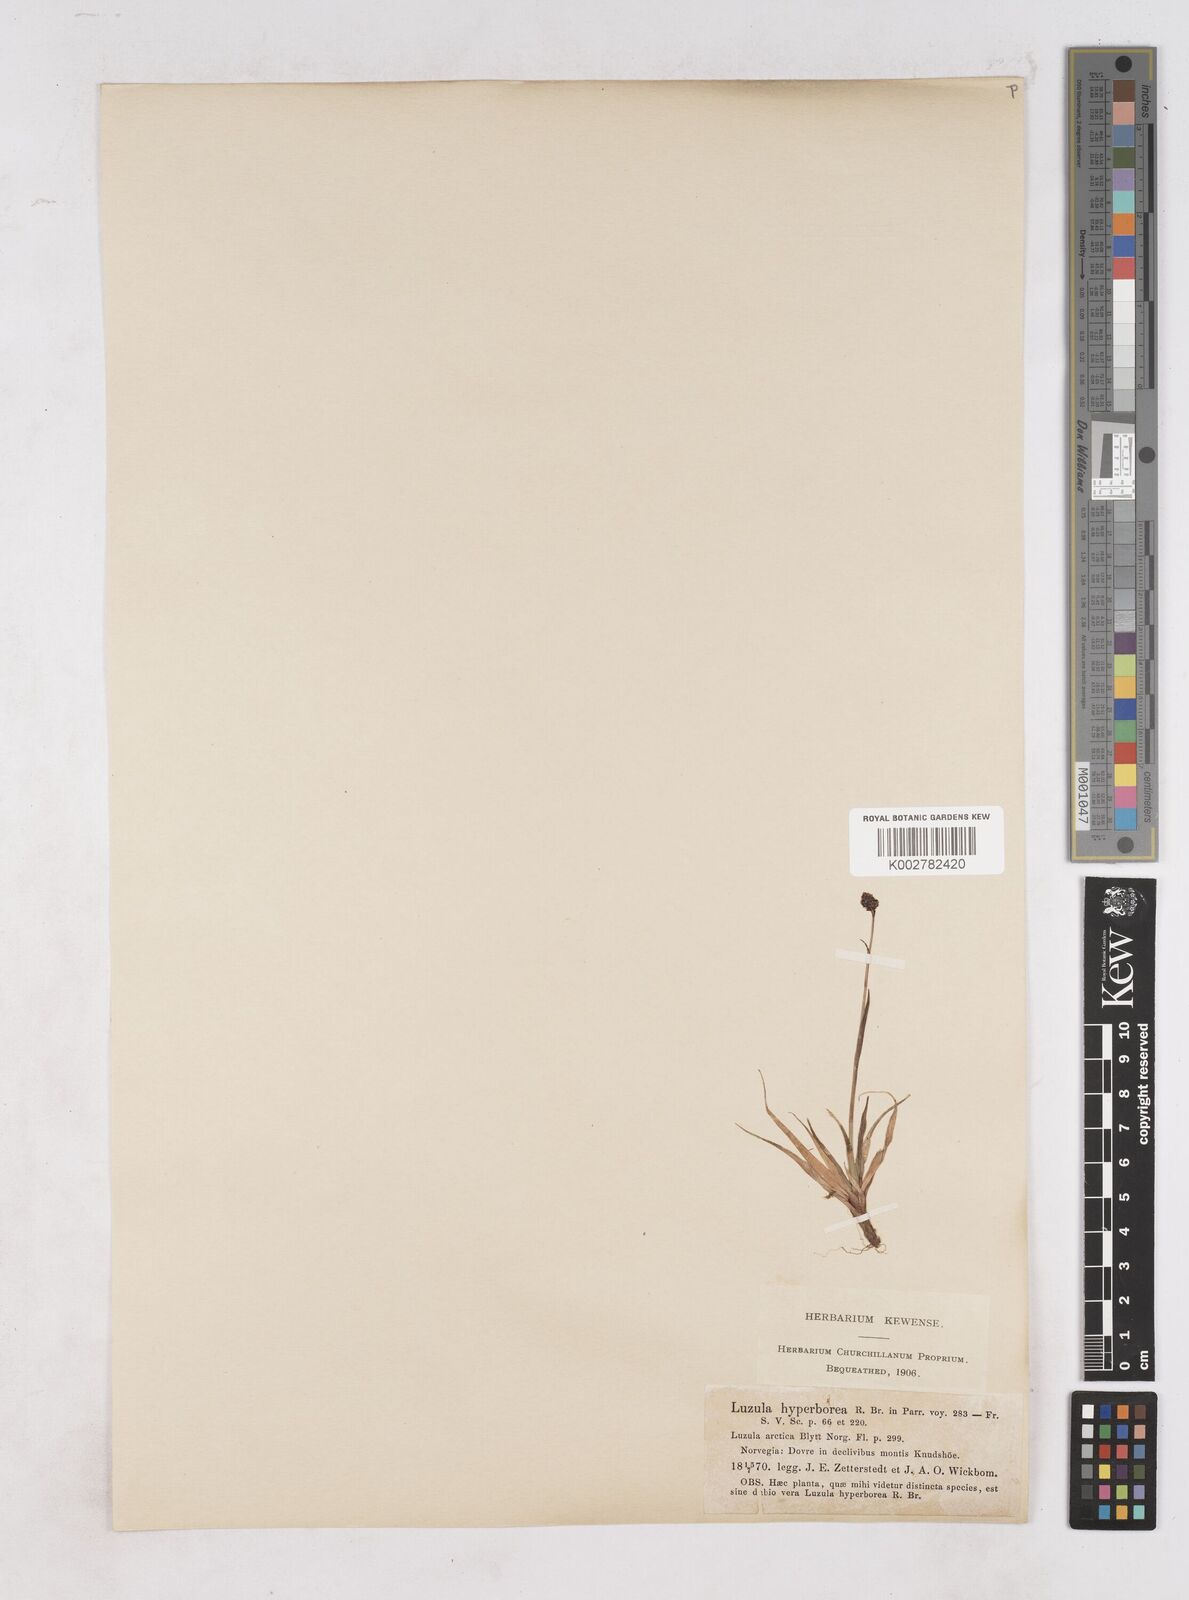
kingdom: Plantae
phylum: Tracheophyta
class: Liliopsida
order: Poales
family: Juncaceae
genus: Luzula
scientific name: Luzula nivalis
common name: Arctic woodrush
